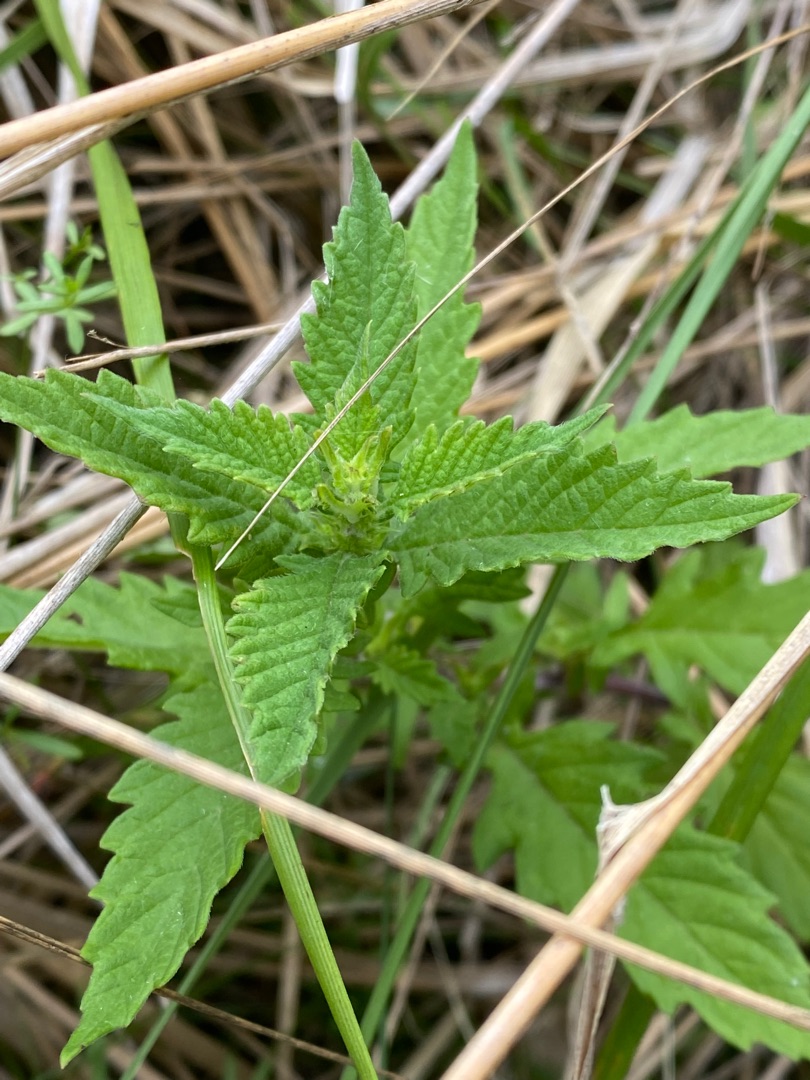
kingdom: Plantae
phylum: Tracheophyta
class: Magnoliopsida
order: Lamiales
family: Lamiaceae
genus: Lycopus
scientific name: Lycopus europaeus
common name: Sværtevæld
